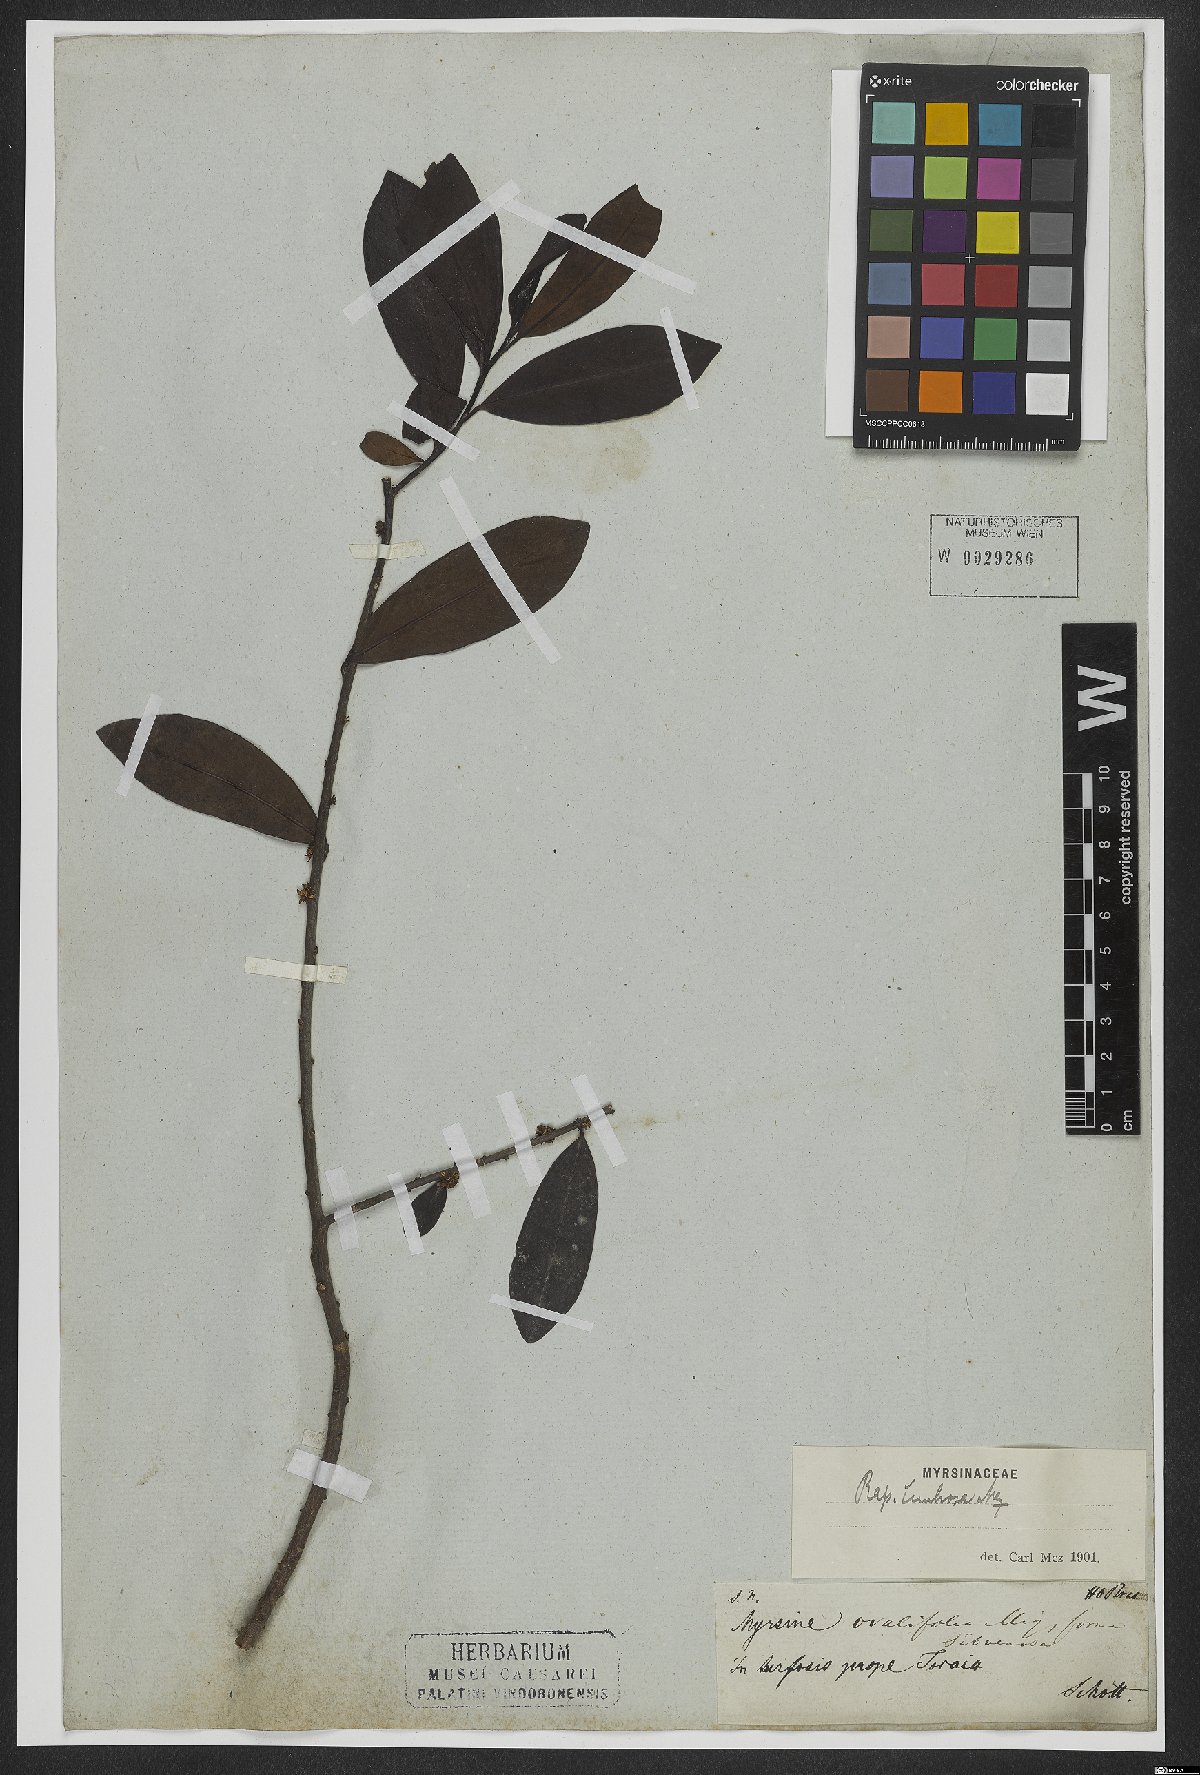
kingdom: Plantae
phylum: Tracheophyta
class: Magnoliopsida
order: Ericales
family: Primulaceae
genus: Myrsine
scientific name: Myrsine guianensis
